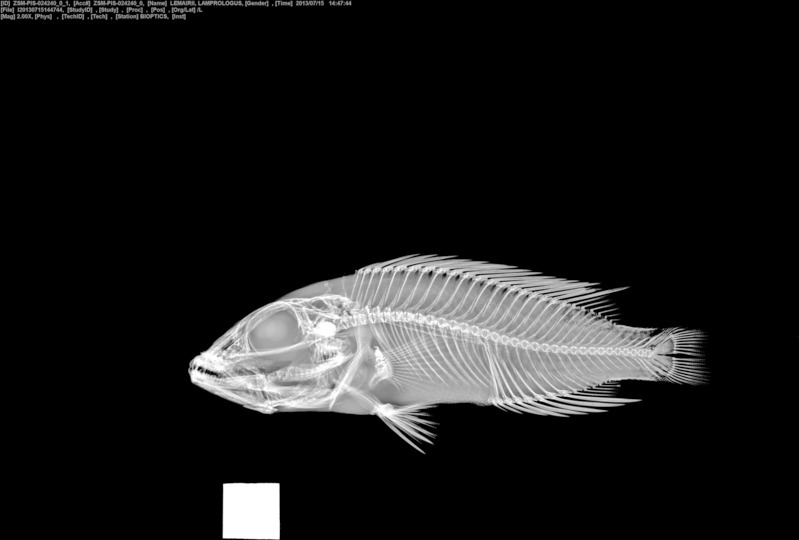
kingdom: Animalia
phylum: Chordata
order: Perciformes
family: Cichlidae
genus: Lepidiolamprologus
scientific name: Lepidiolamprologus
